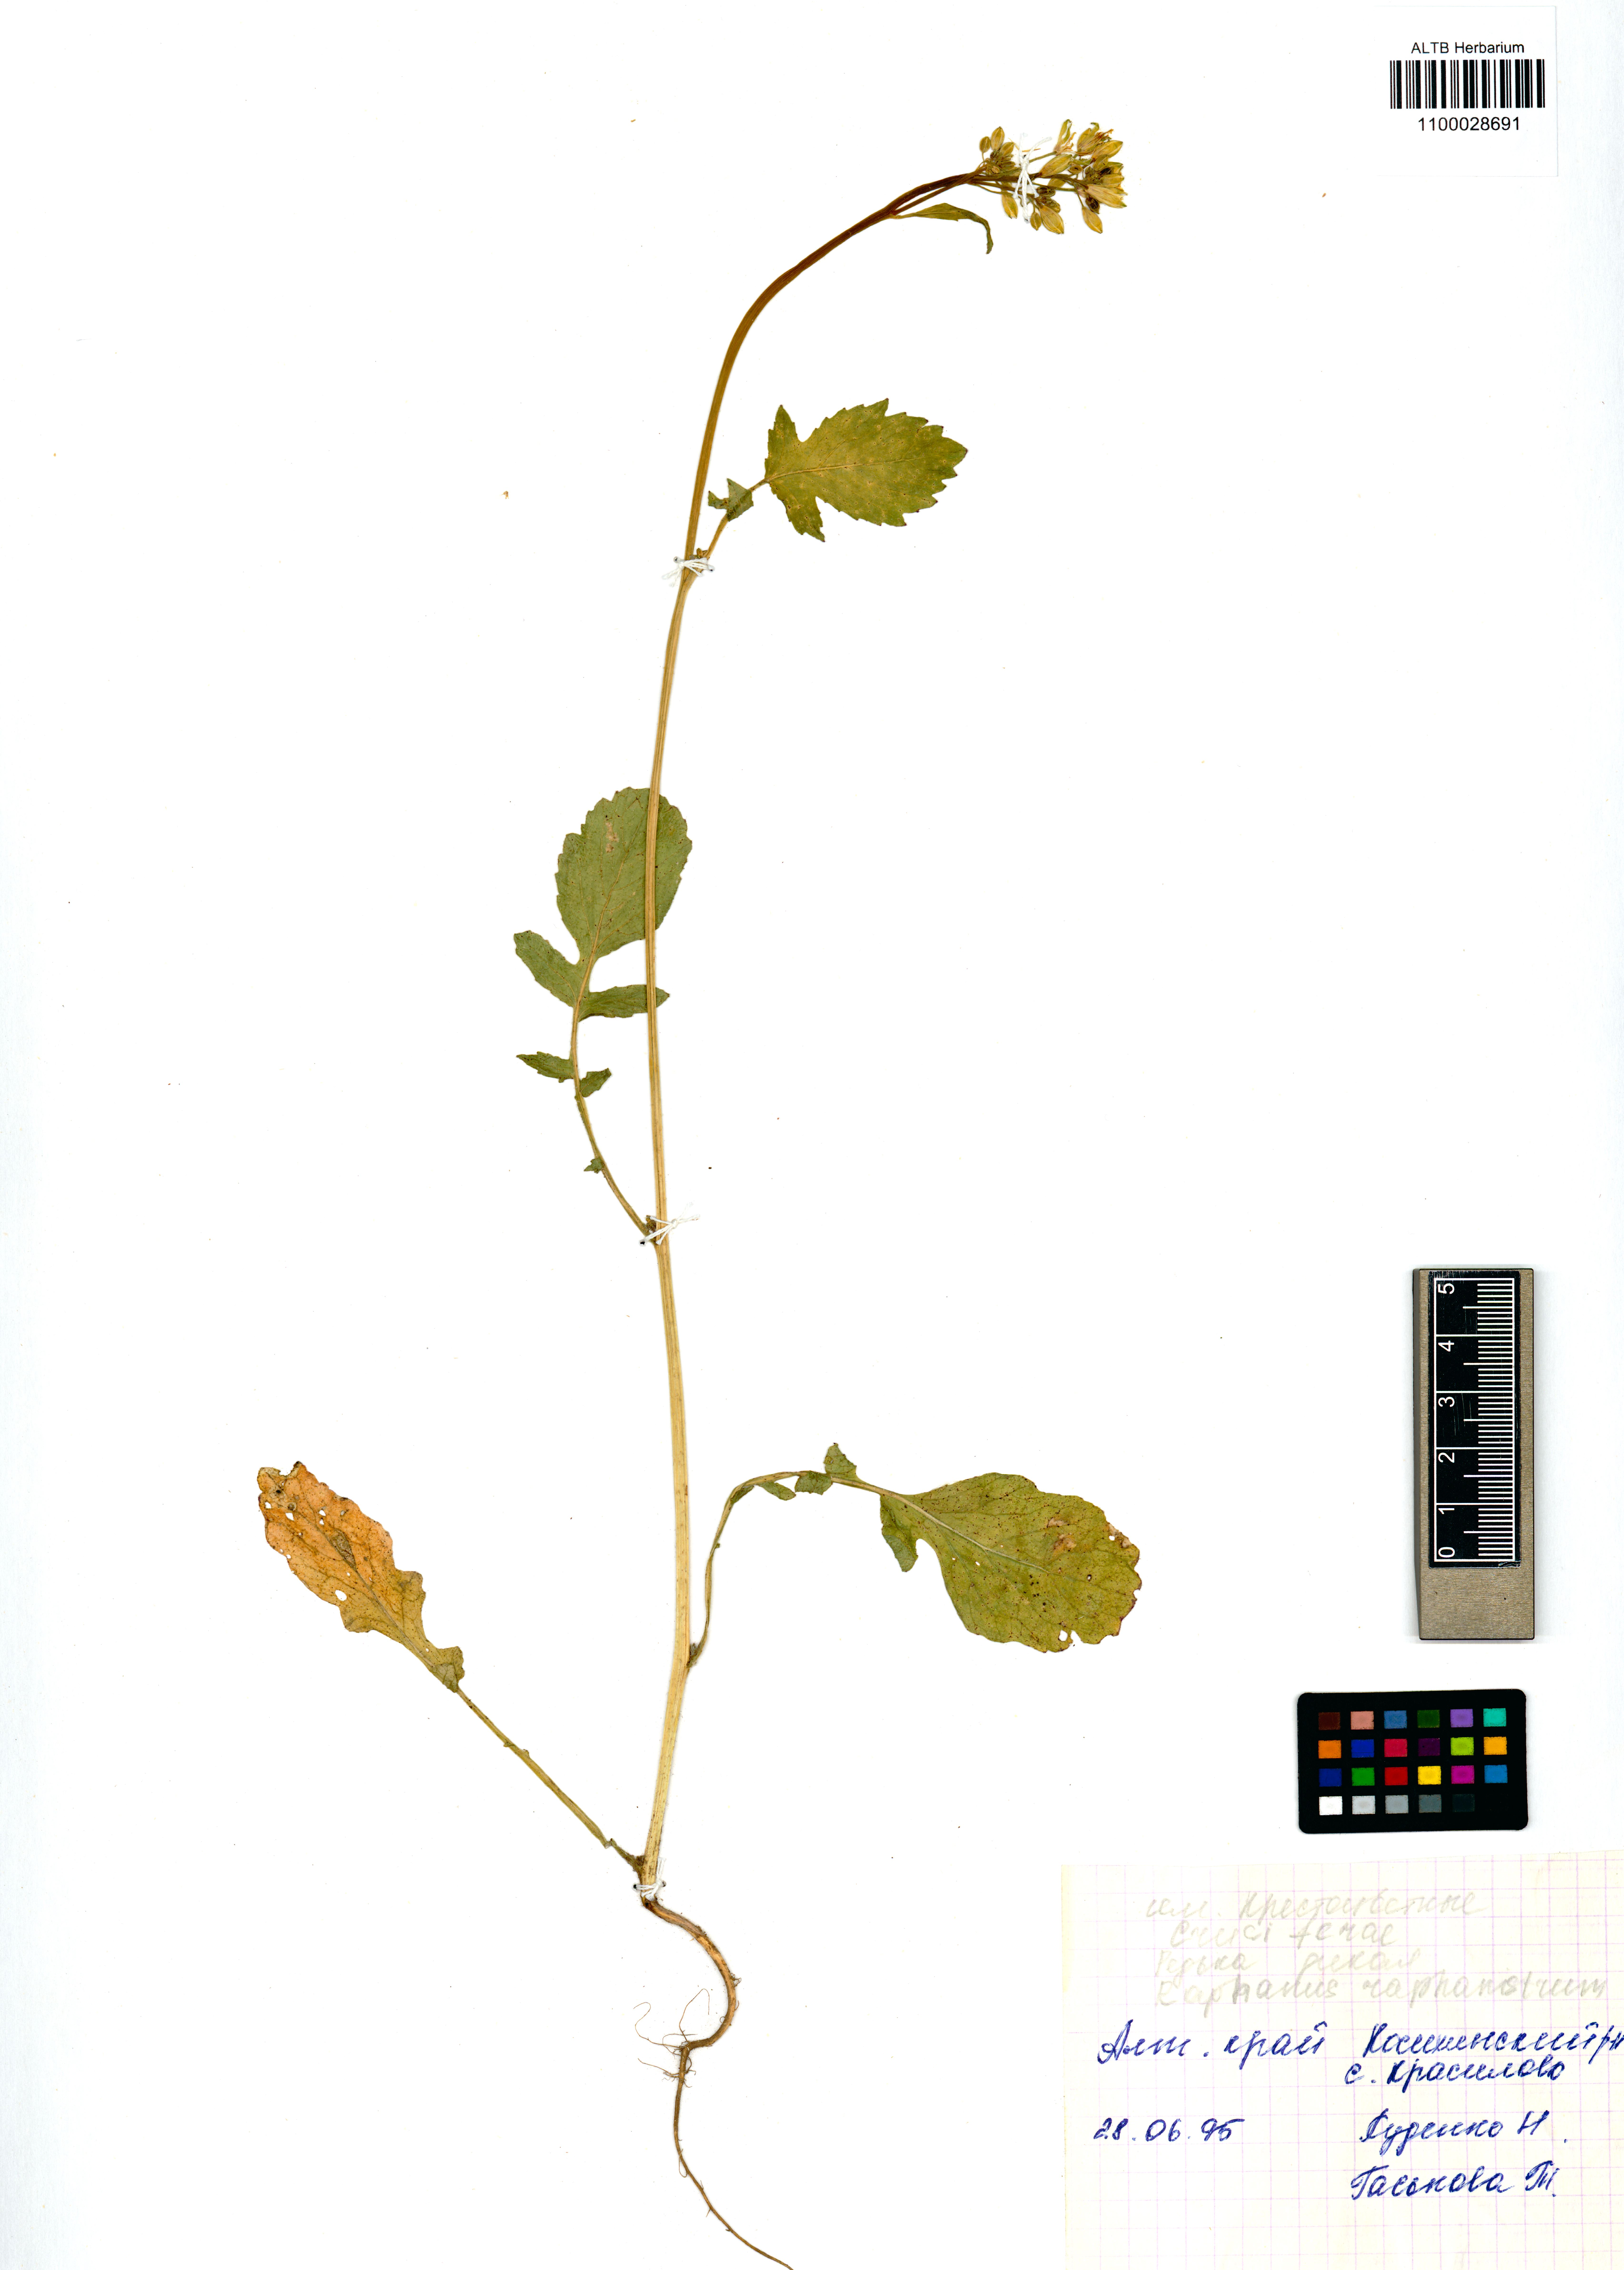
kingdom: Plantae
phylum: Tracheophyta
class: Magnoliopsida
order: Brassicales
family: Brassicaceae
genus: Raphanus
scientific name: Raphanus raphanistrum
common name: Wild radish
